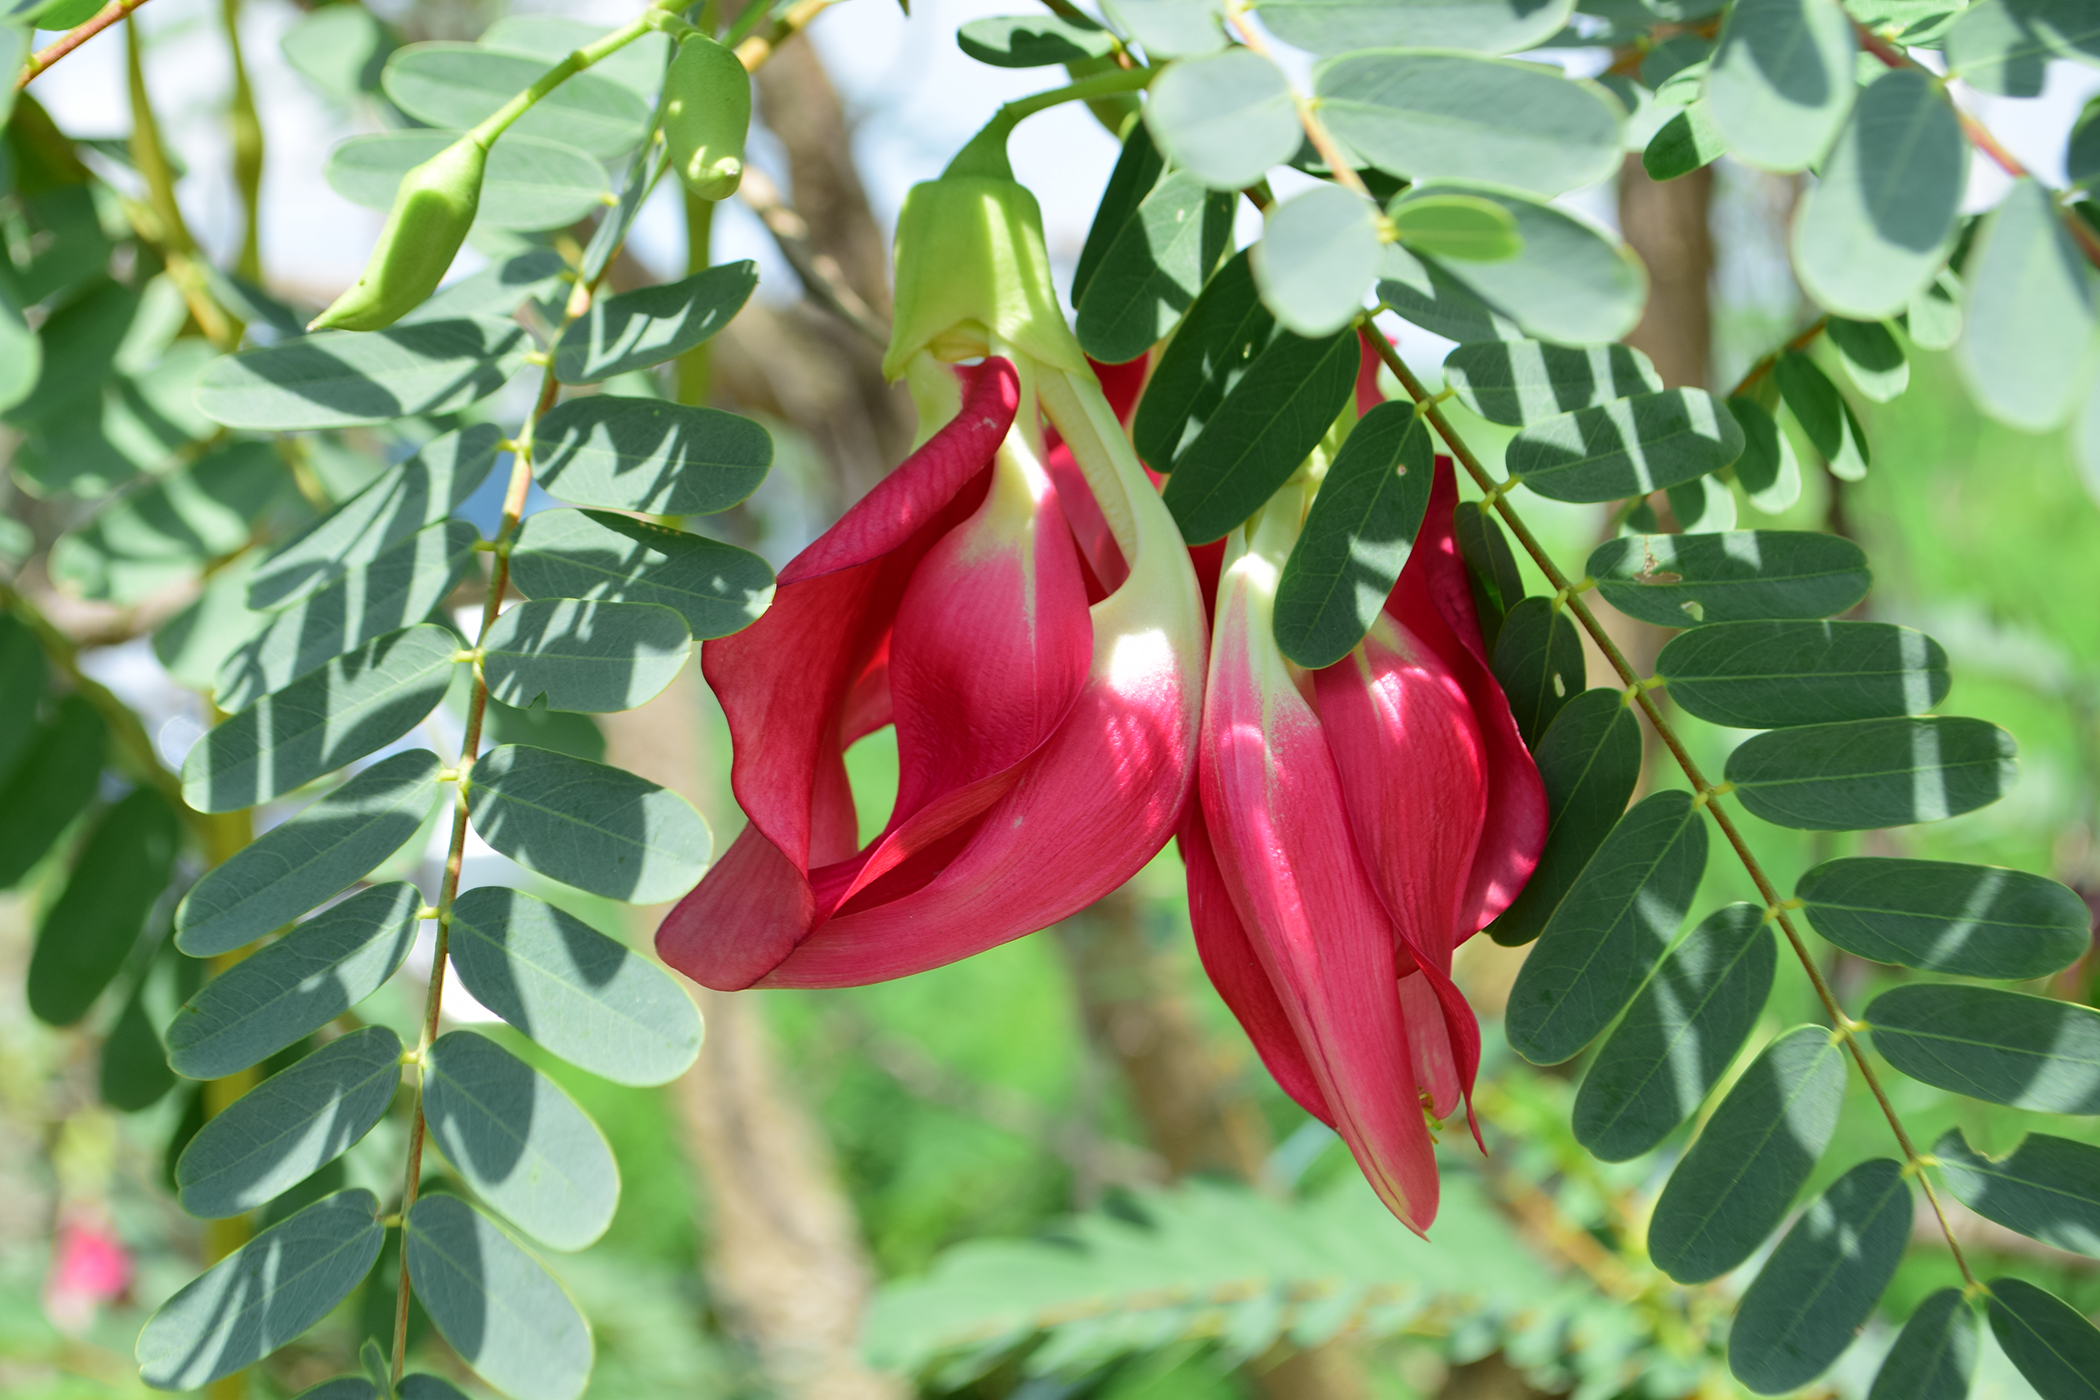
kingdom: Plantae
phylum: Tracheophyta
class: Magnoliopsida
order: Fabales
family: Fabaceae
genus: Sesbania
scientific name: Sesbania grandiflora
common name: Vegetable-hummingbird
